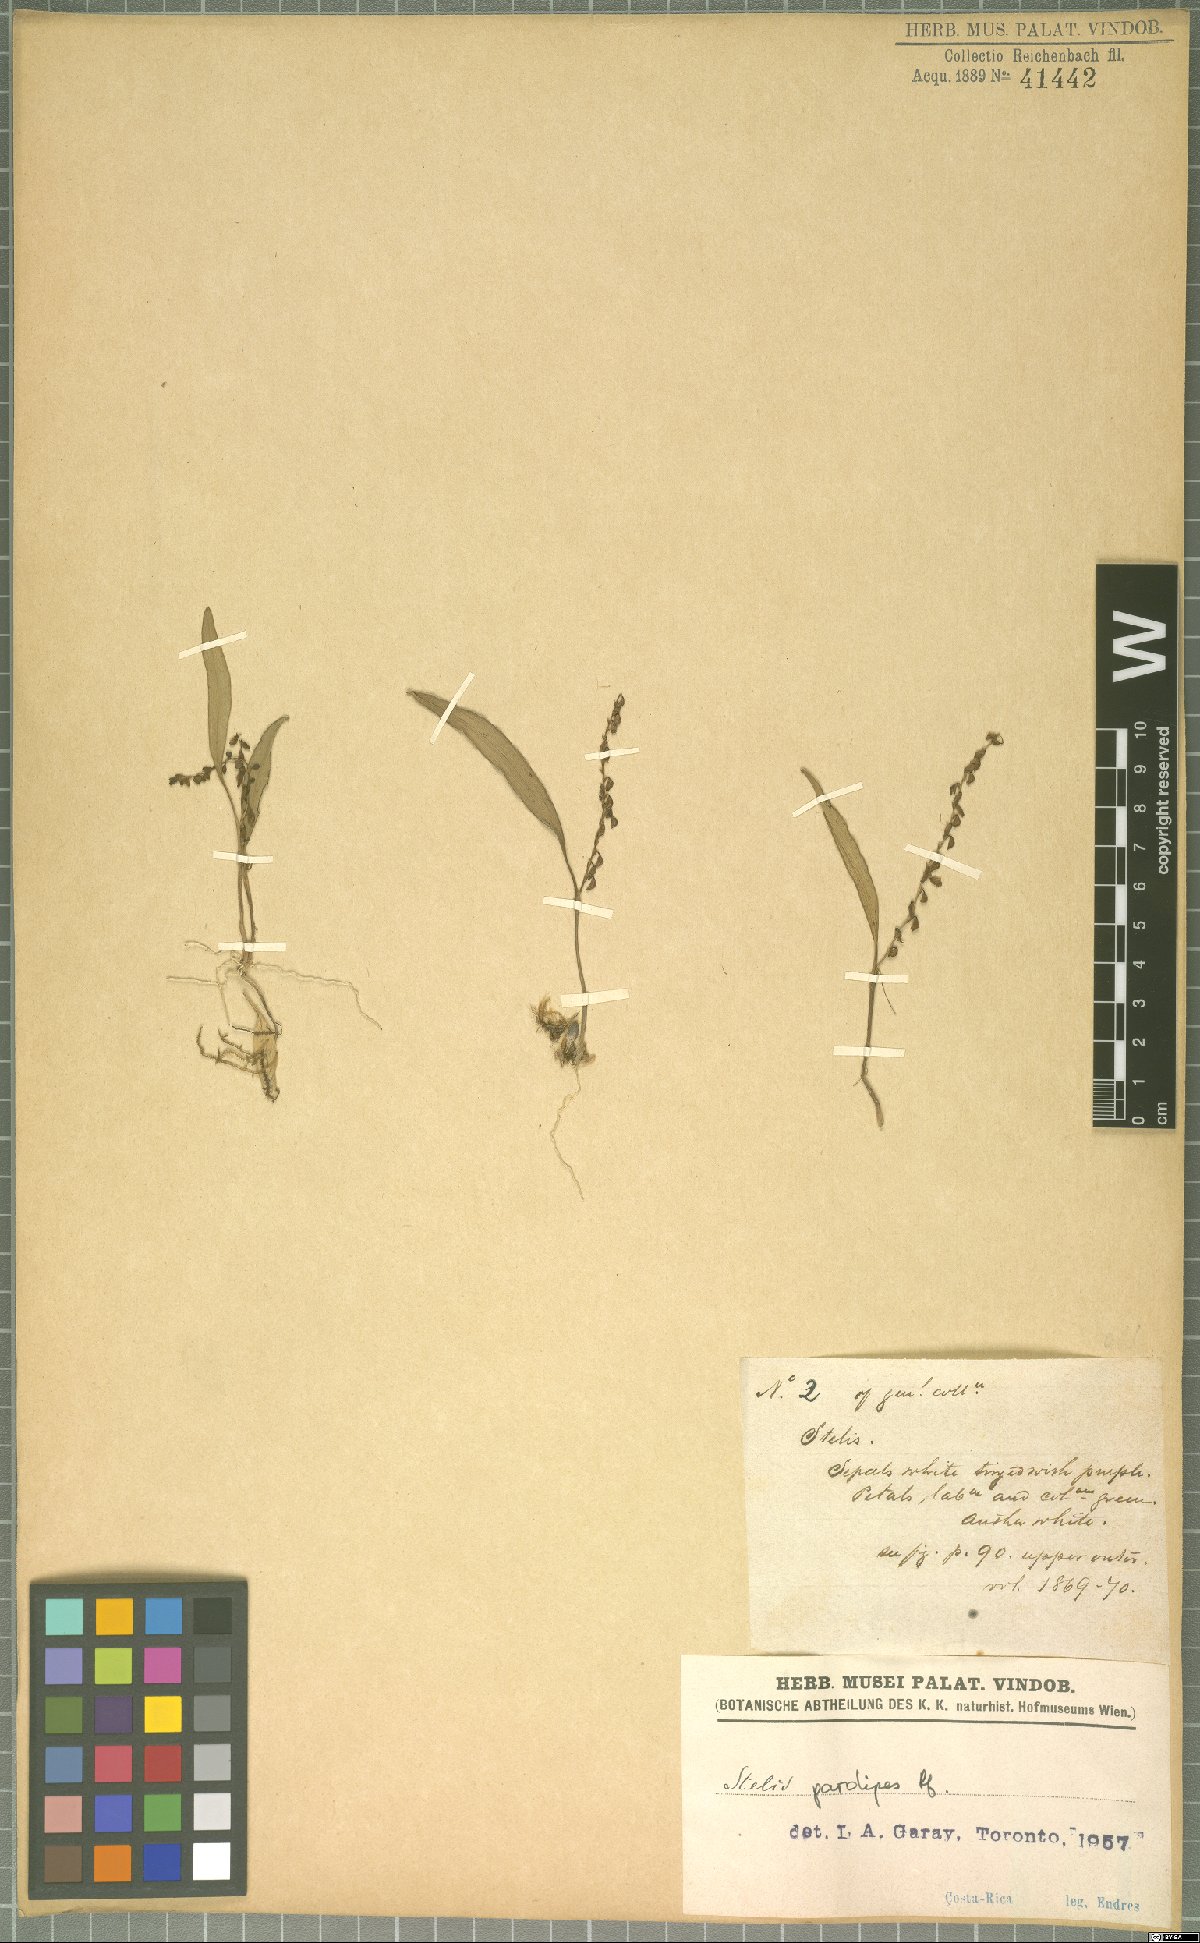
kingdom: Plantae
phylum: Tracheophyta
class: Liliopsida
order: Asparagales
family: Orchidaceae
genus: Stelis
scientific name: Stelis pardipes
